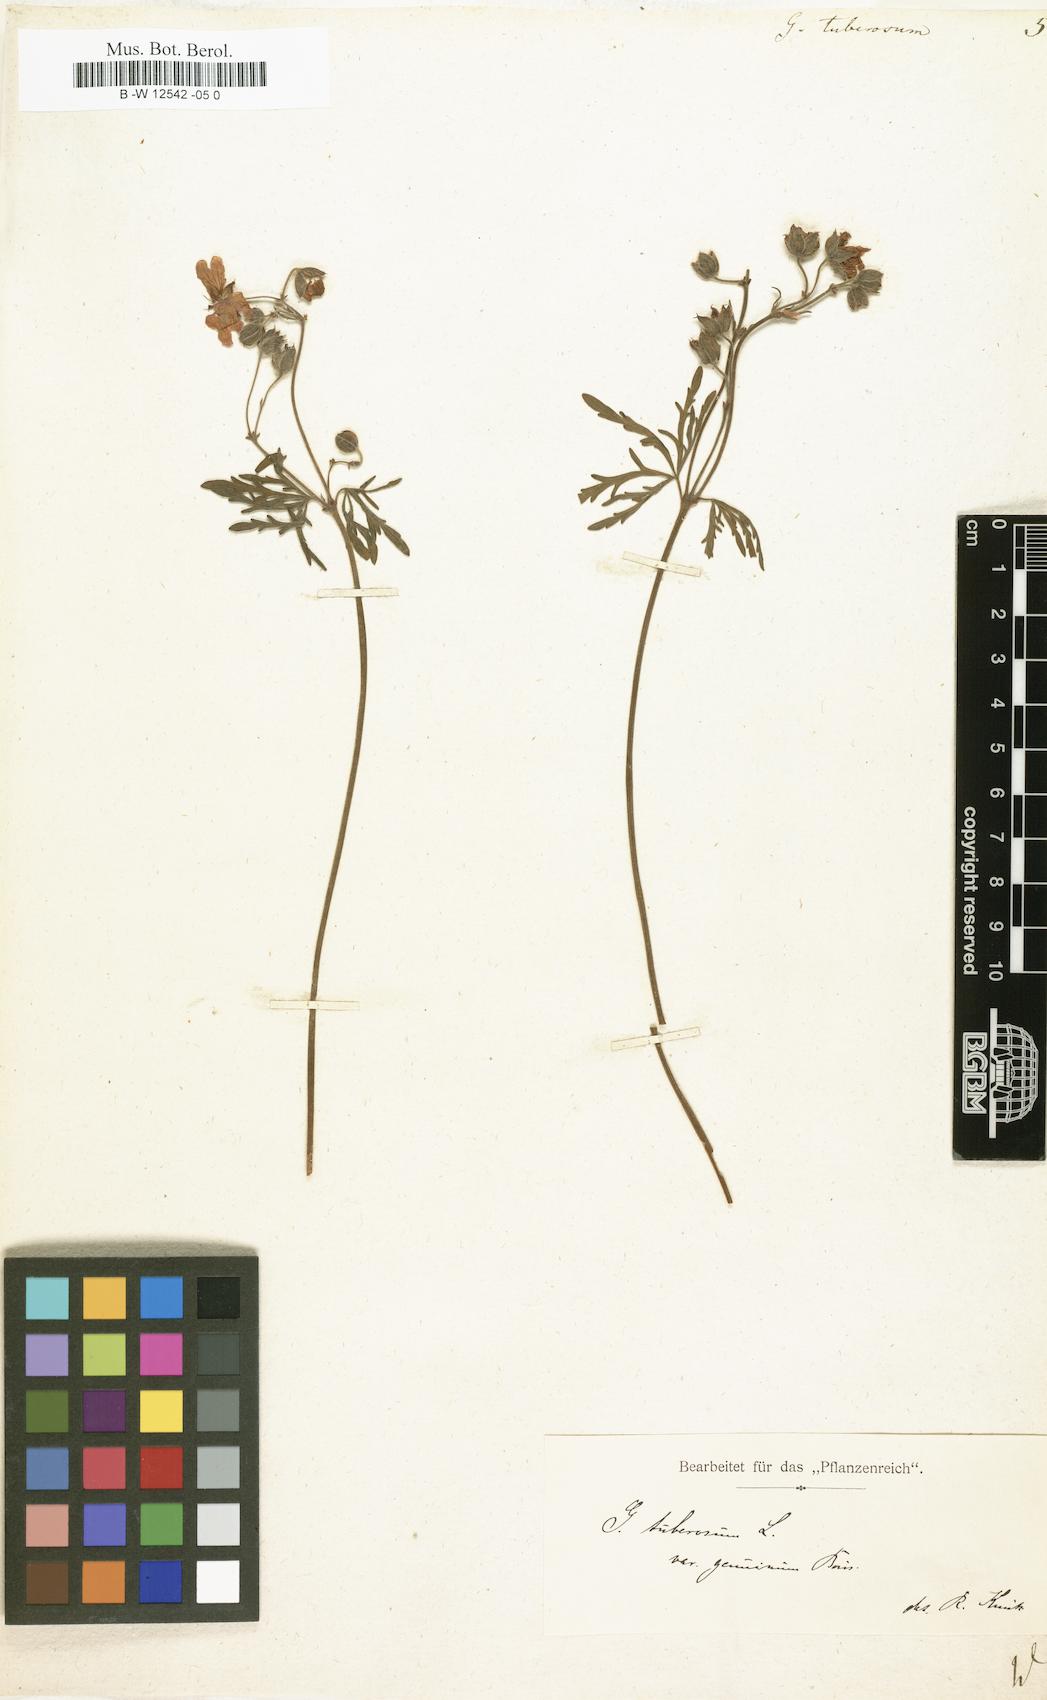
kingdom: Plantae
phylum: Tracheophyta
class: Magnoliopsida
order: Geraniales
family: Geraniaceae
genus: Geranium
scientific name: Geranium tuberosum
